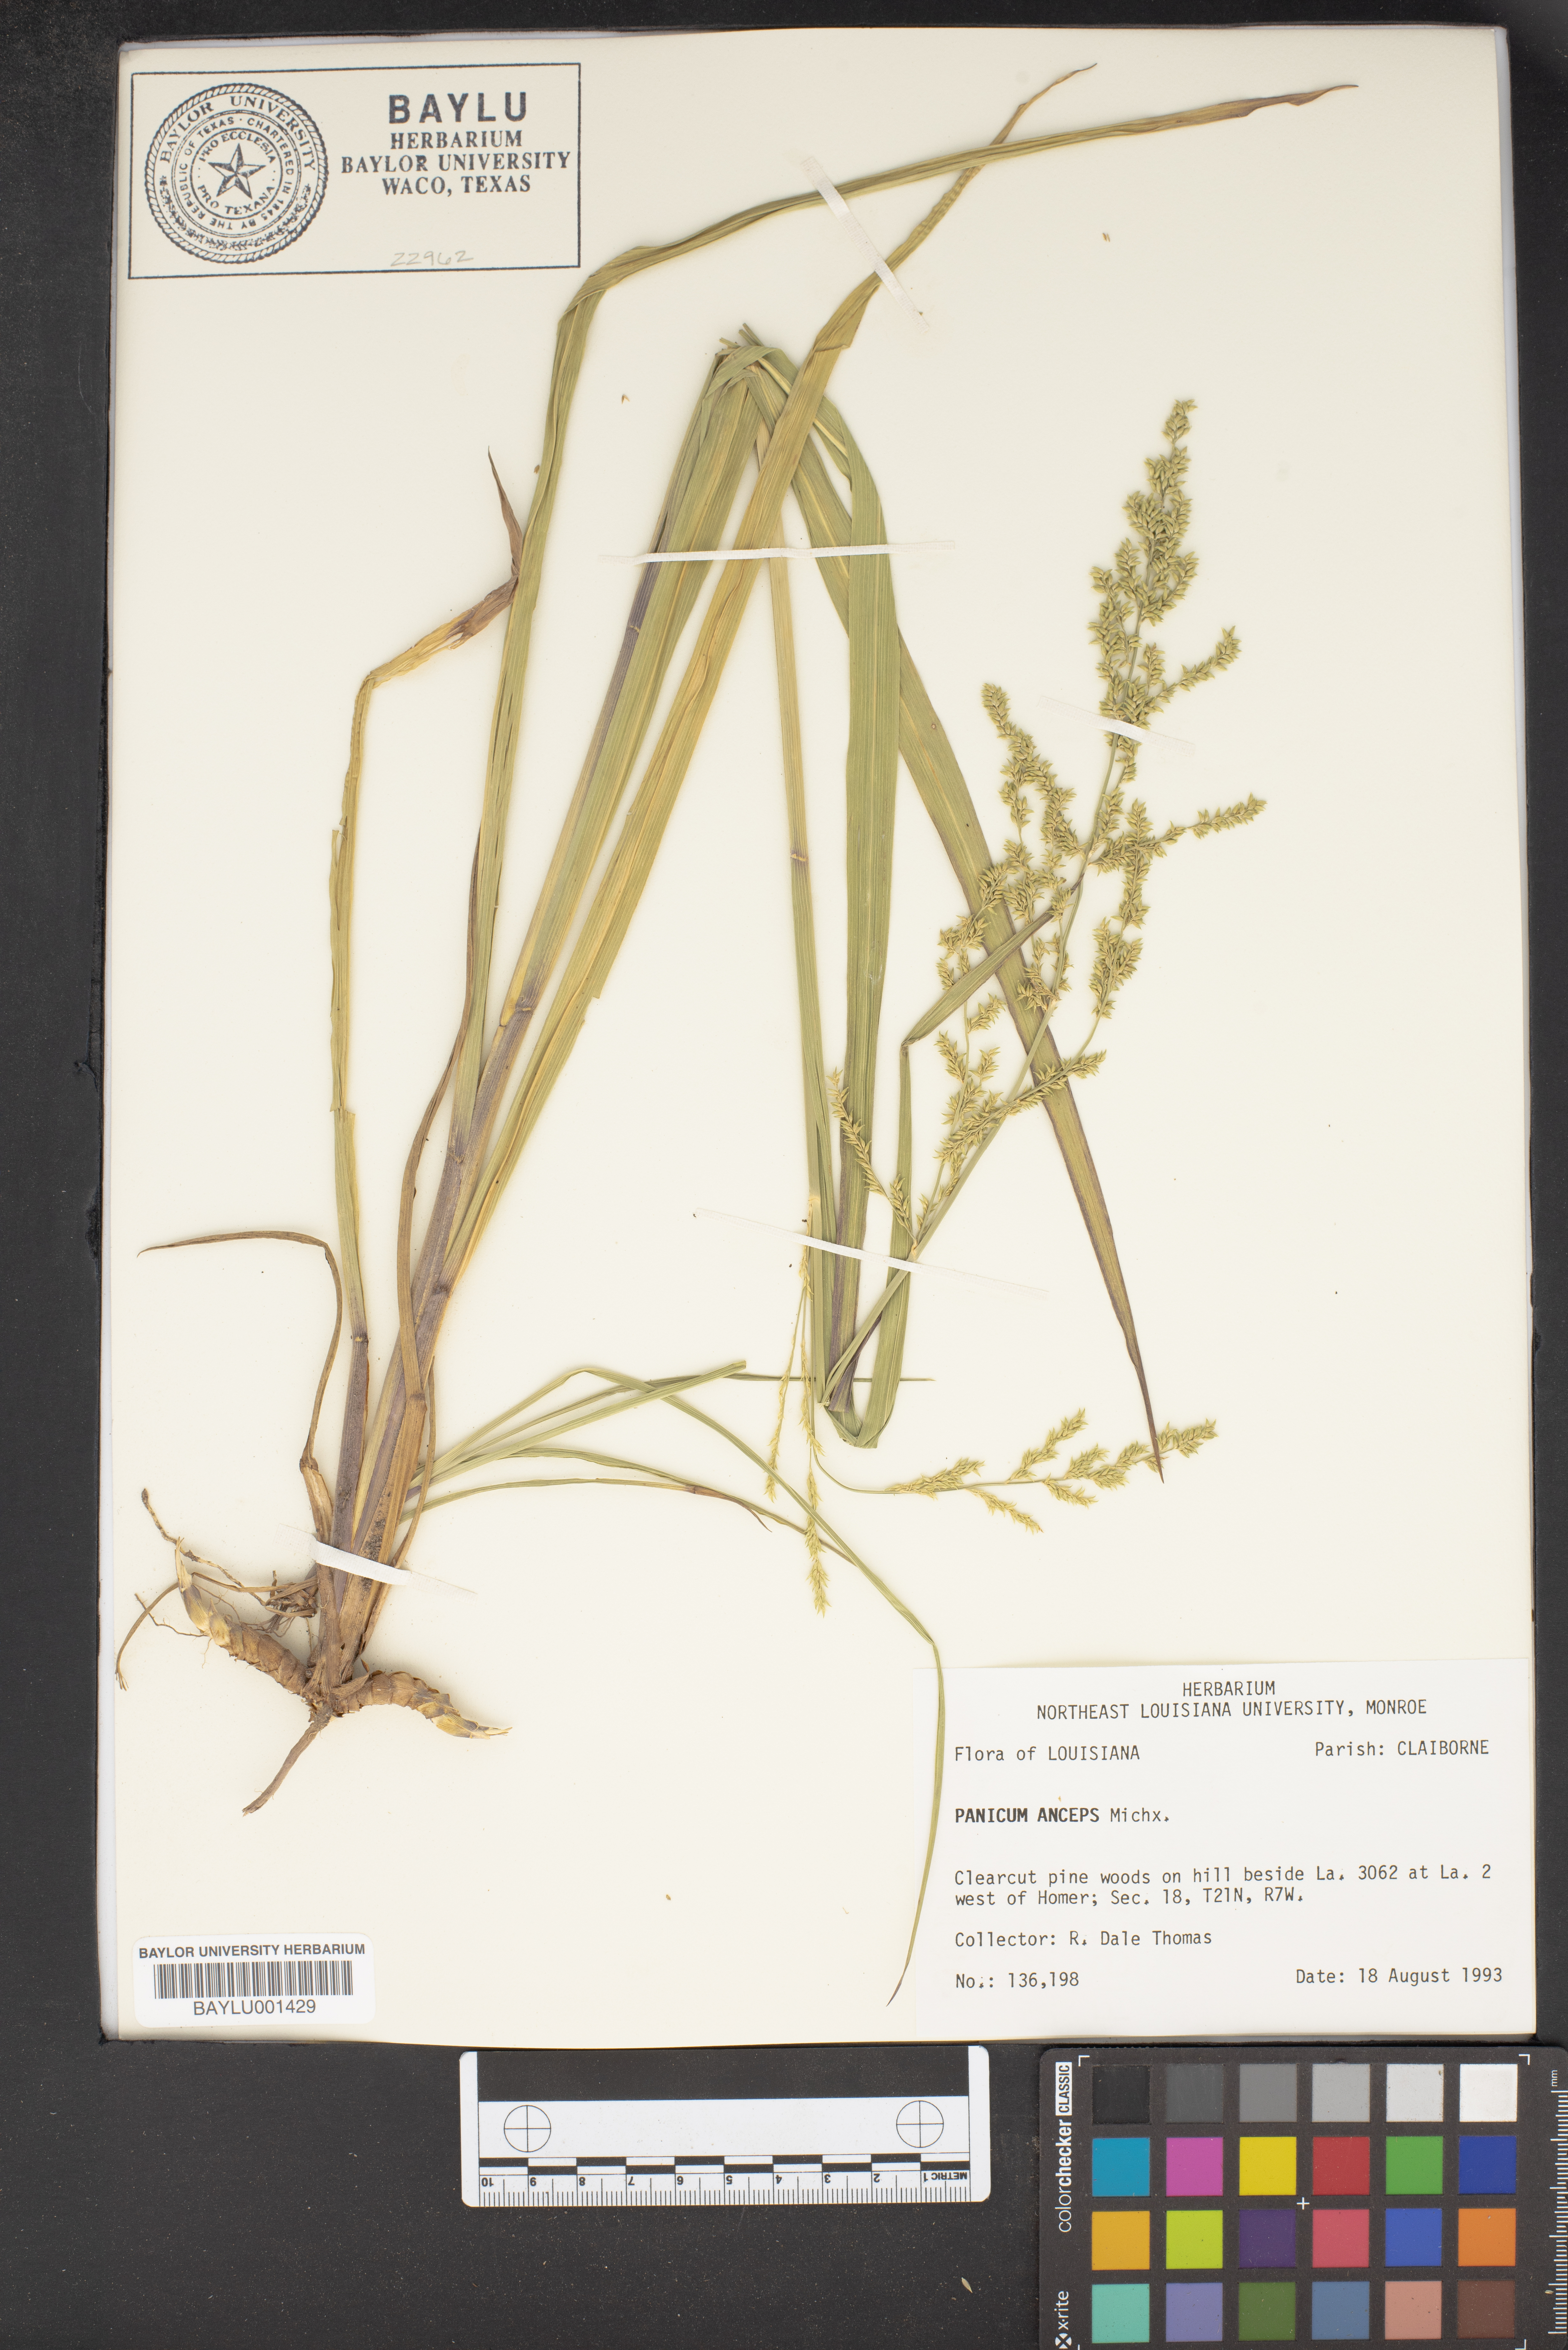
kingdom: Plantae
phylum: Tracheophyta
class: Liliopsida
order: Poales
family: Poaceae
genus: Coleataenia
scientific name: Coleataenia anceps
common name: Beaked panic grass
